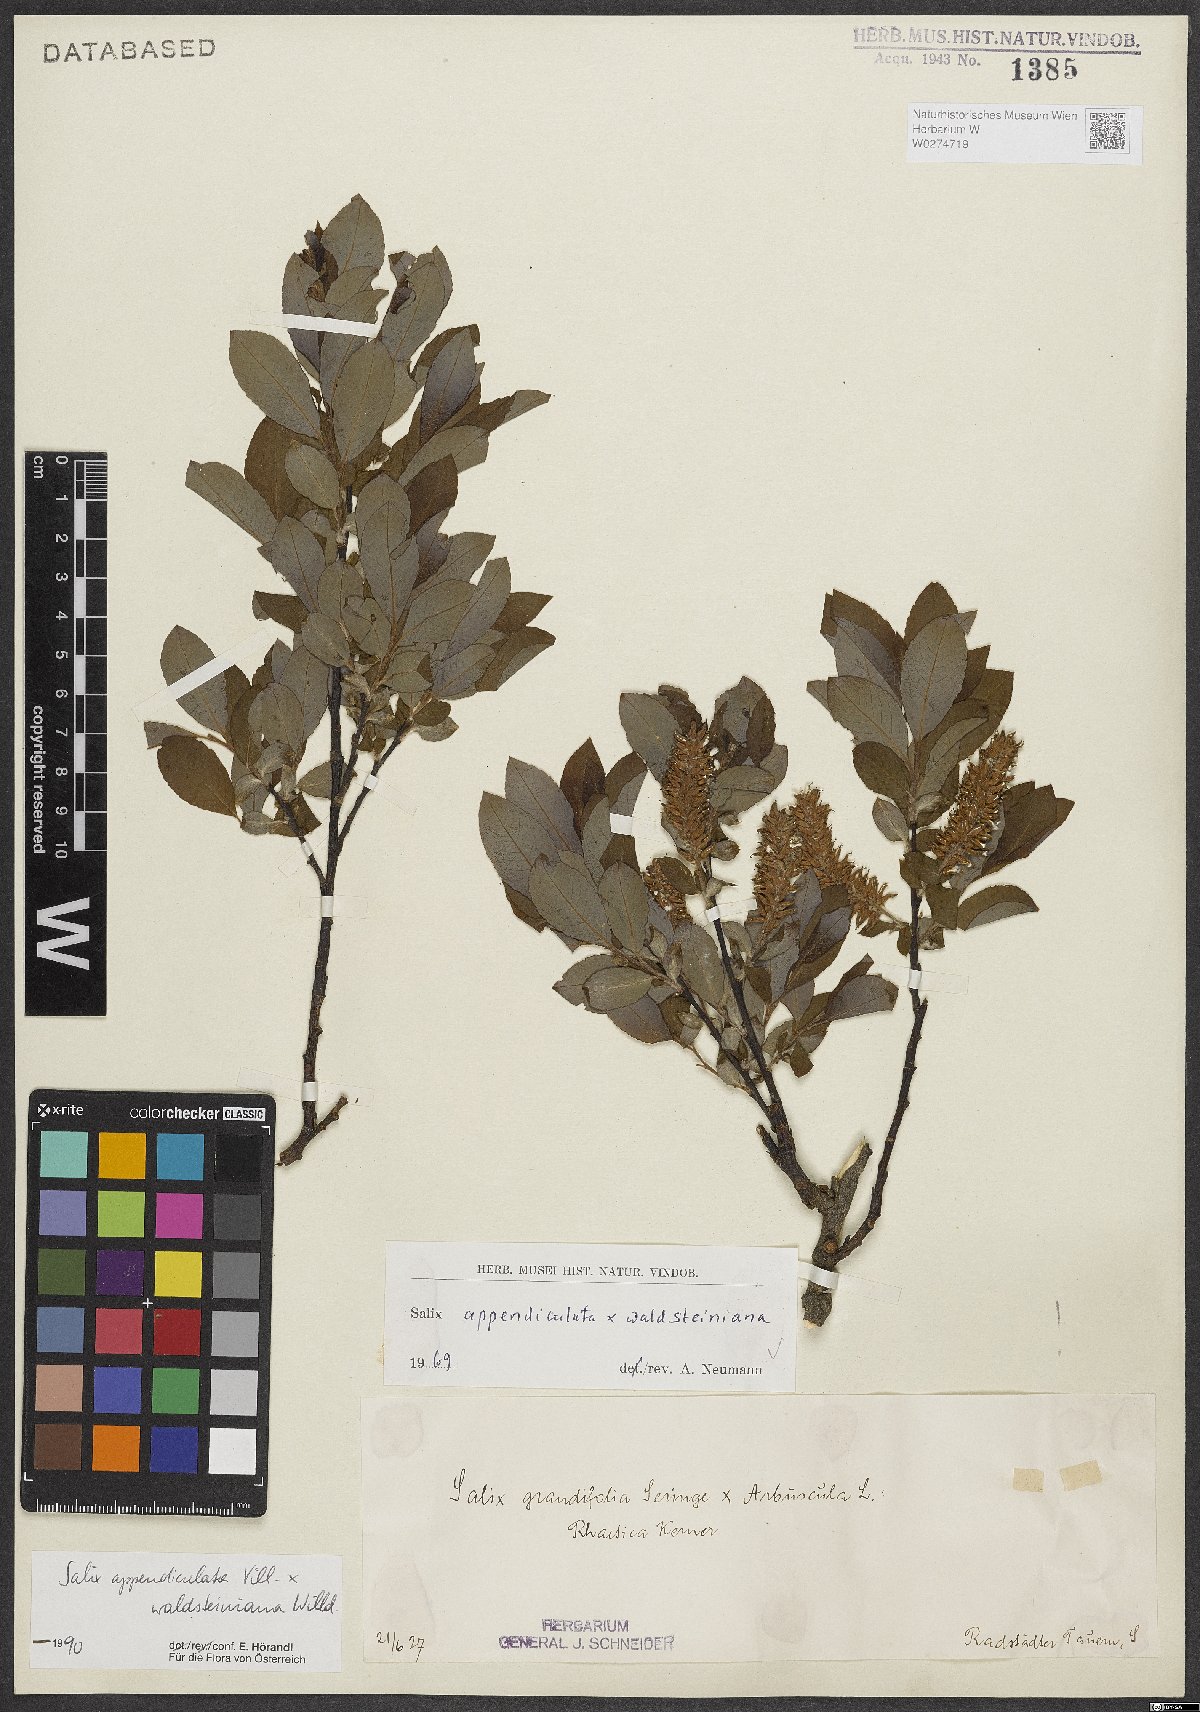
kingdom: Plantae
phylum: Tracheophyta
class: Magnoliopsida
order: Malpighiales
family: Salicaceae
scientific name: Salicaceae
